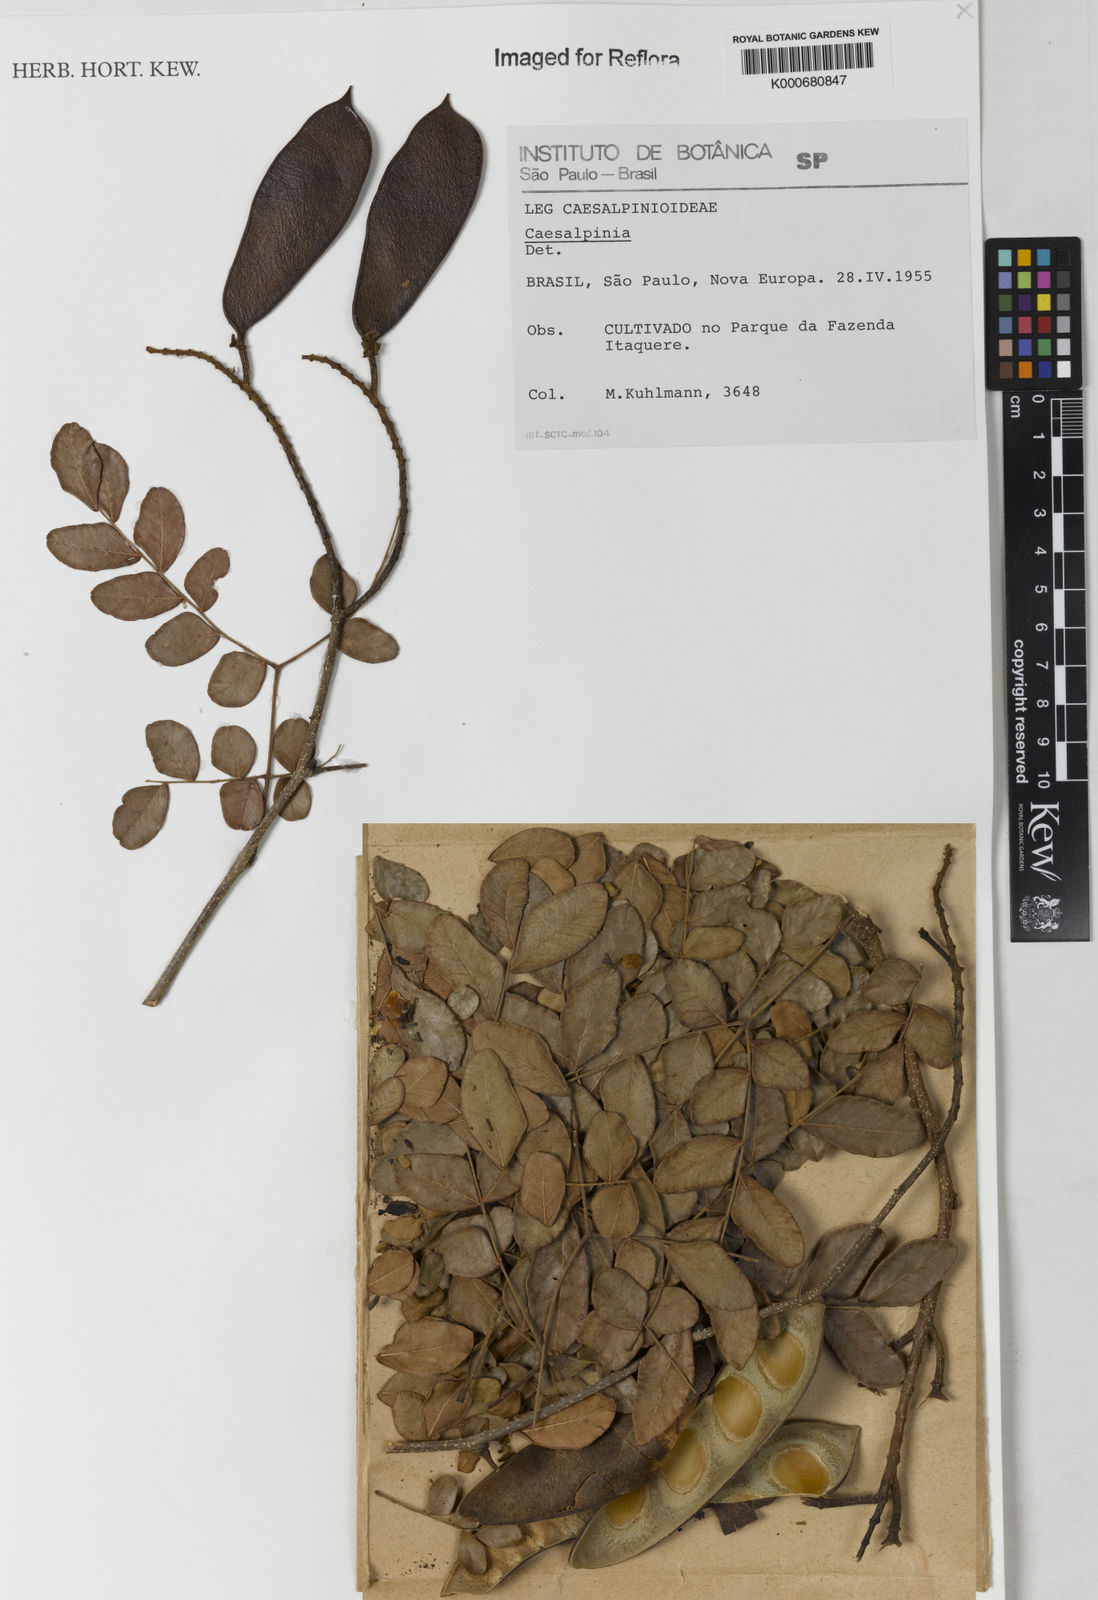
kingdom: Plantae
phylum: Tracheophyta
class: Magnoliopsida
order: Fabales
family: Fabaceae
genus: Caesalpinia
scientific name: Caesalpinia
